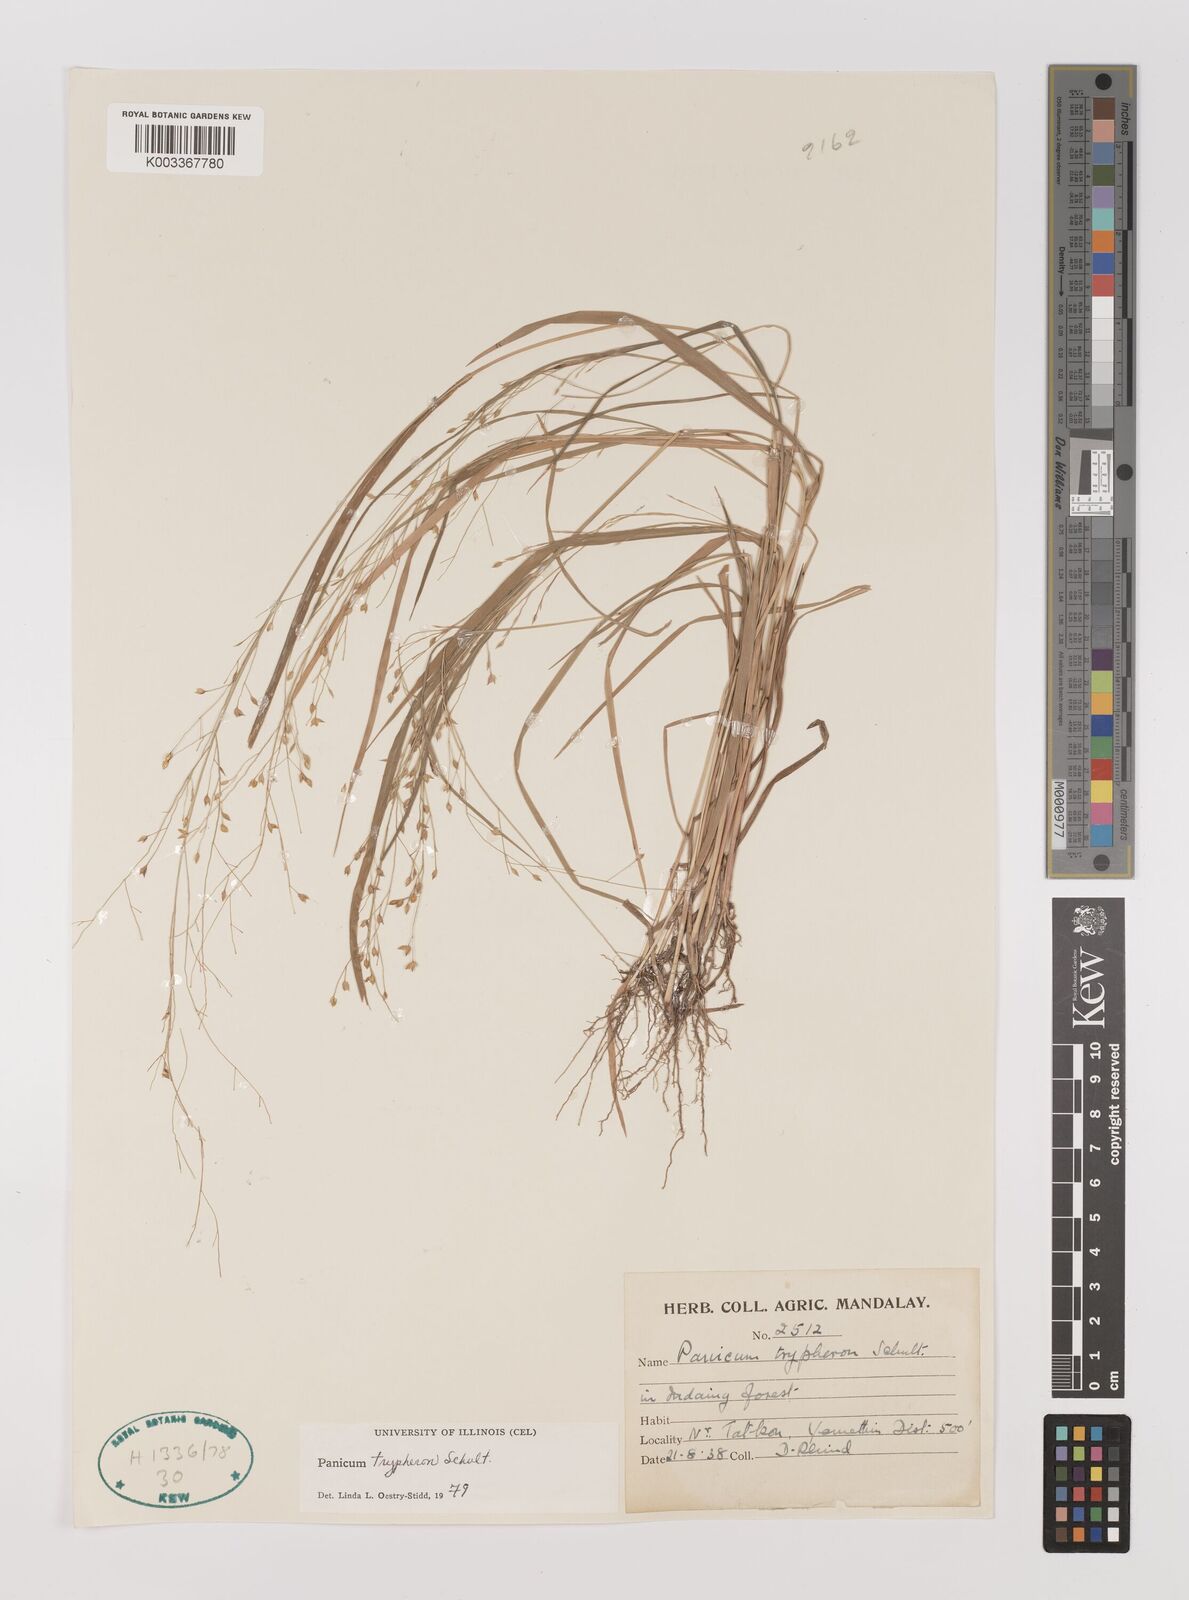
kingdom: Plantae
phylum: Tracheophyta
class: Liliopsida
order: Poales
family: Poaceae
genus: Panicum
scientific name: Panicum curviflorum
